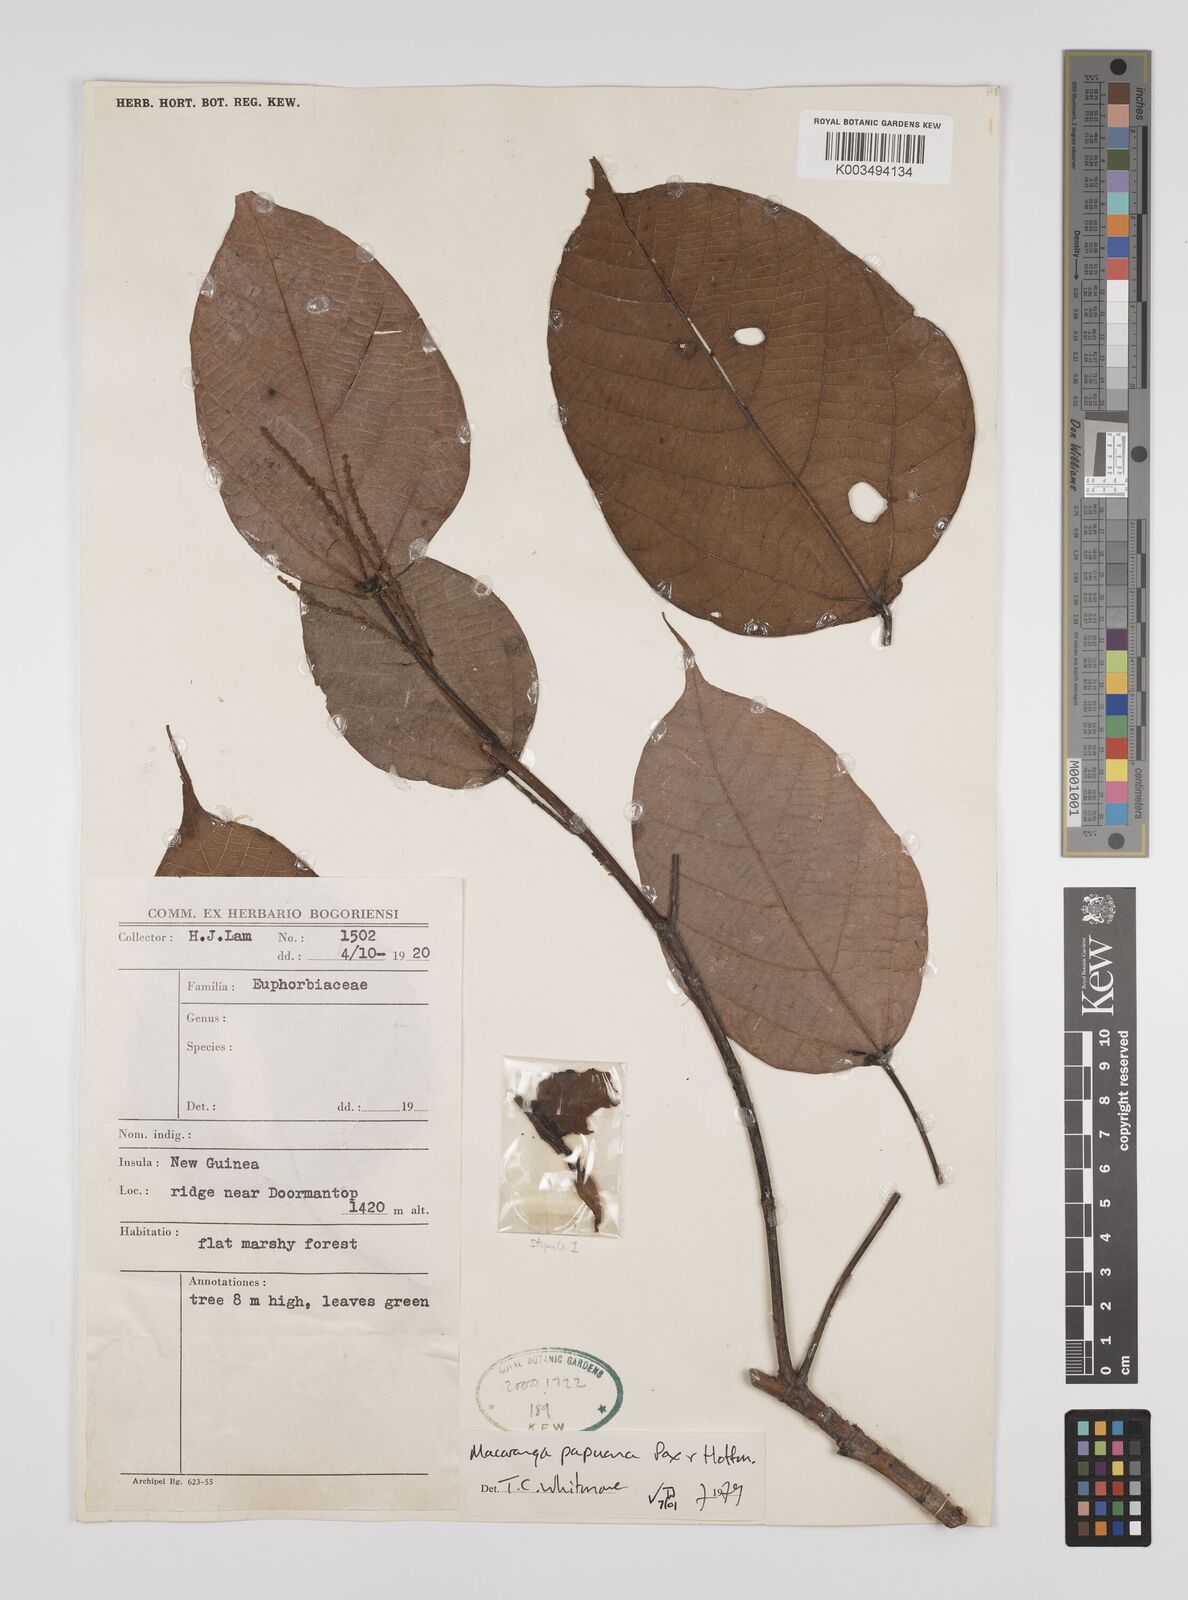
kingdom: Plantae
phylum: Tracheophyta
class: Magnoliopsida
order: Malpighiales
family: Euphorbiaceae
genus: Macaranga
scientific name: Macaranga aleuritoides
